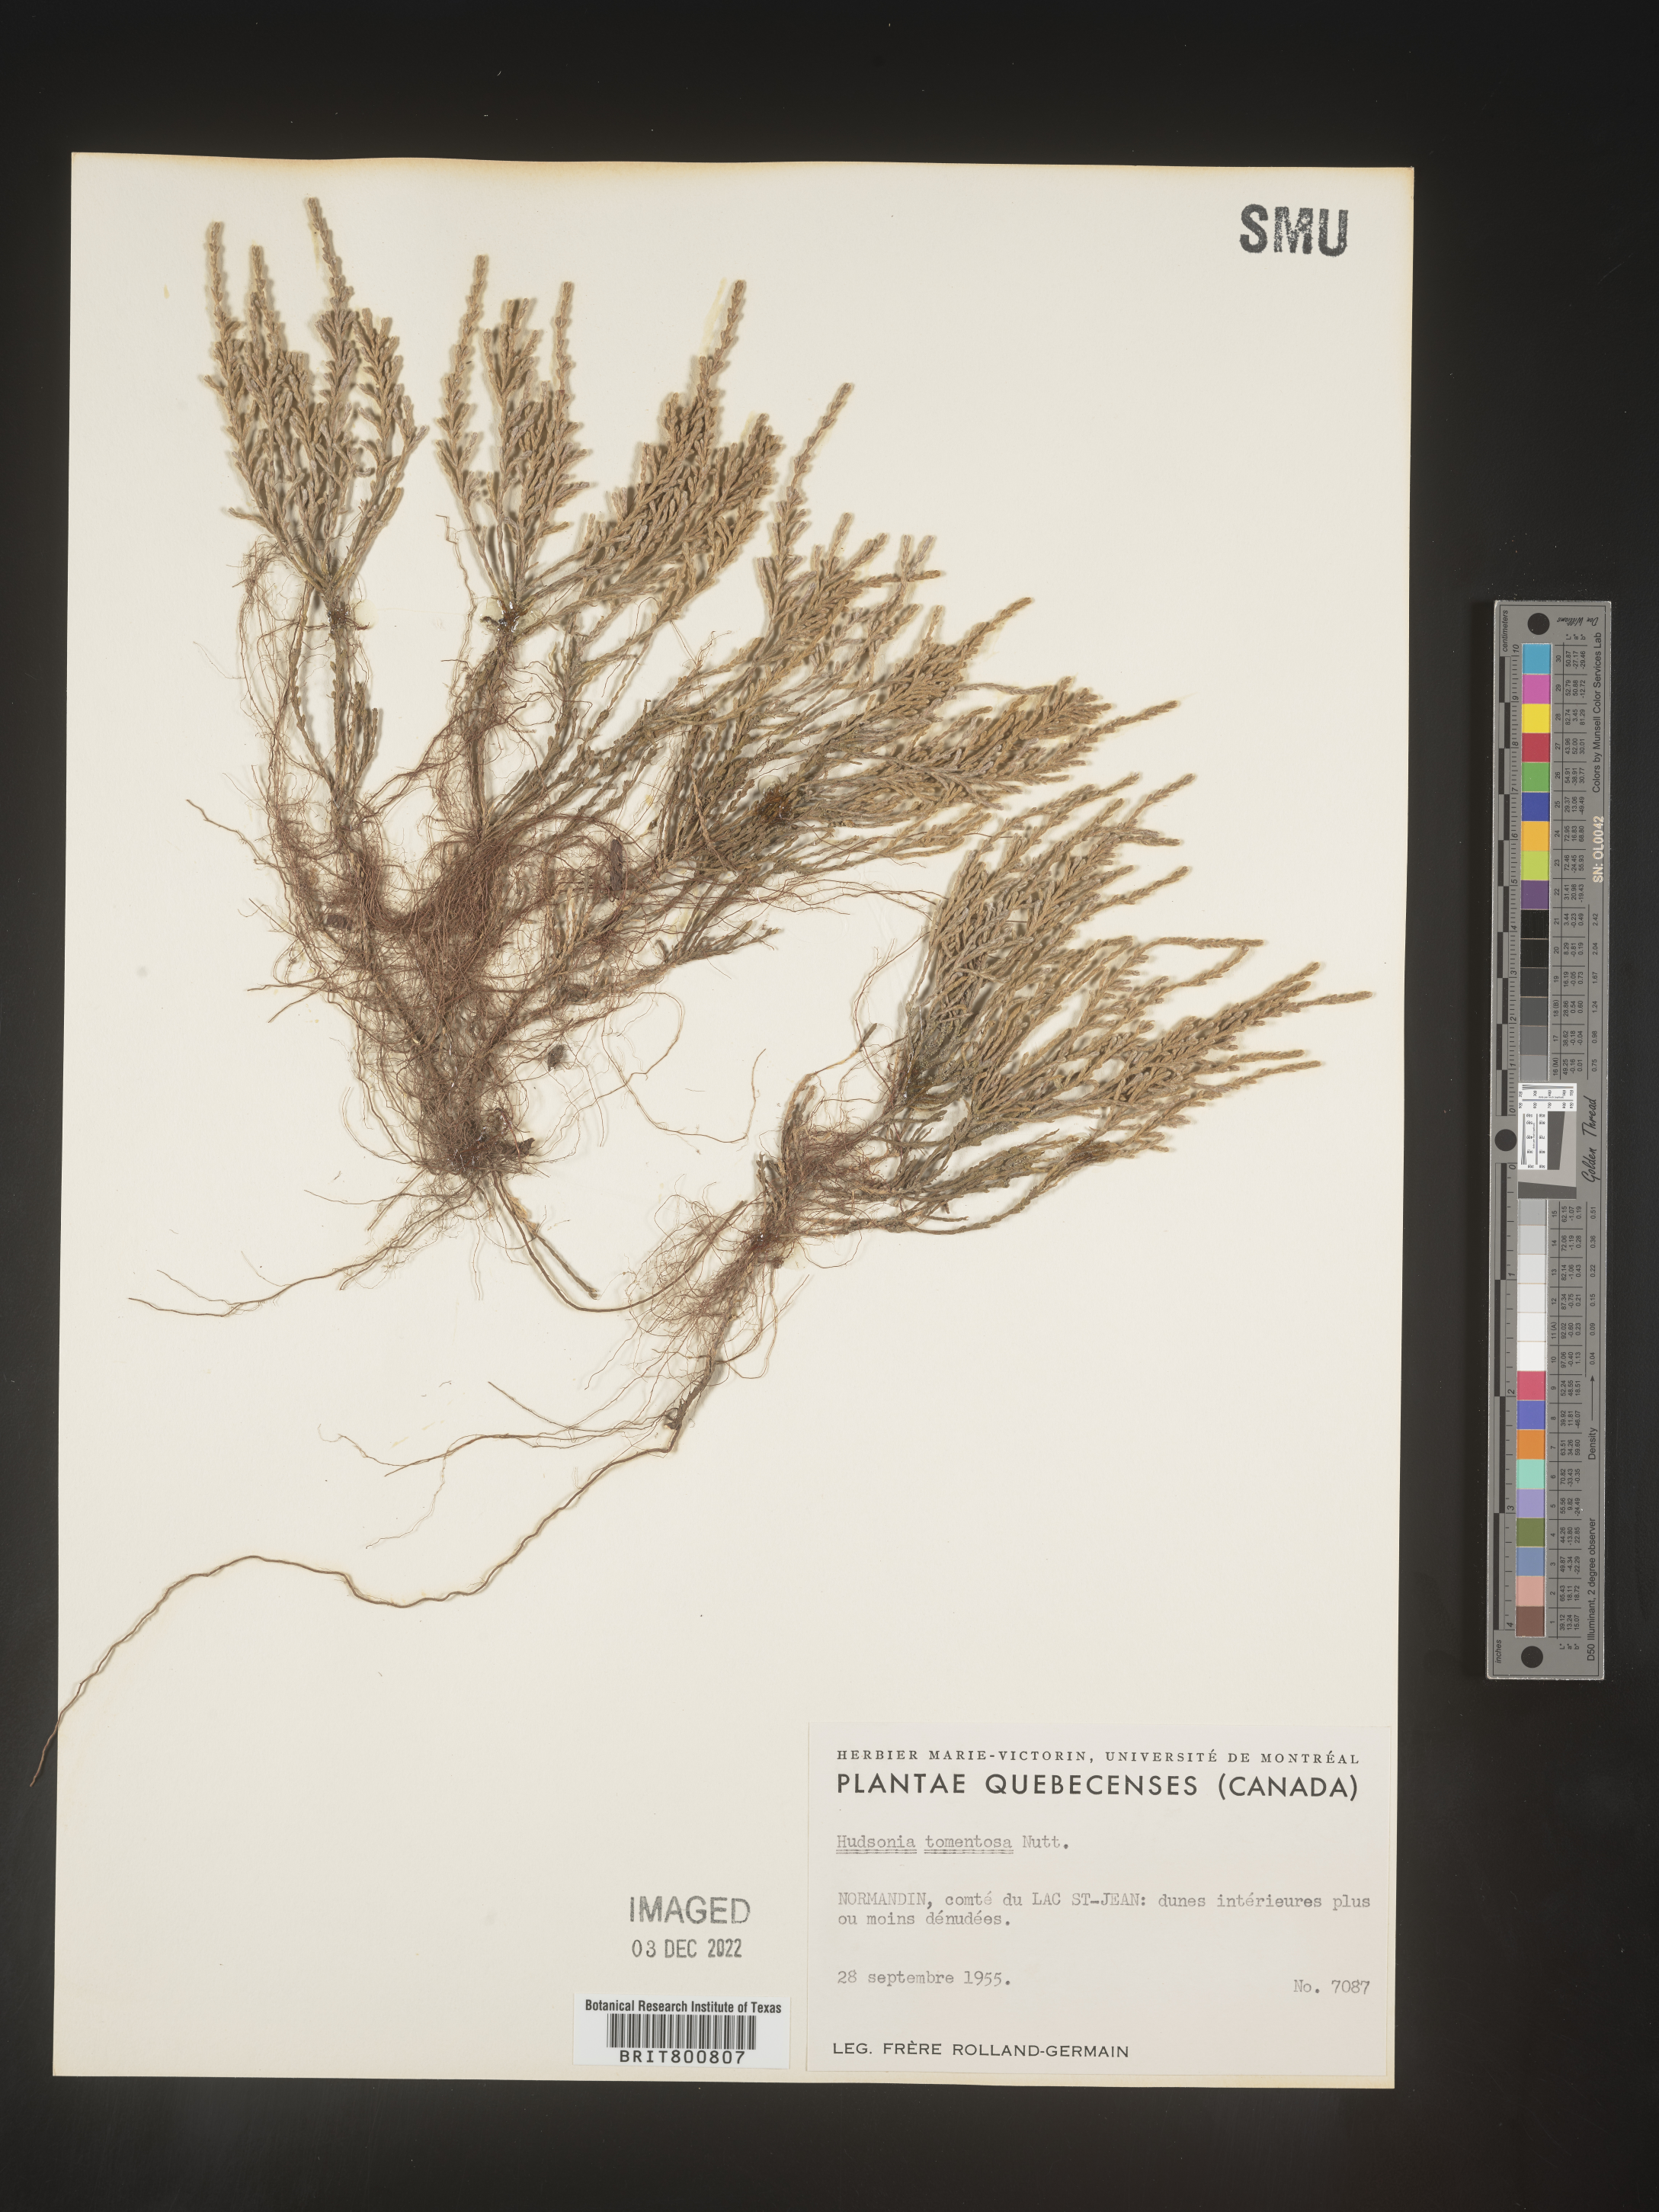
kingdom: Plantae
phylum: Tracheophyta
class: Magnoliopsida
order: Malvales
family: Cistaceae
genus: Hudsonia
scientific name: Hudsonia tomentosa
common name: Beach-heath
